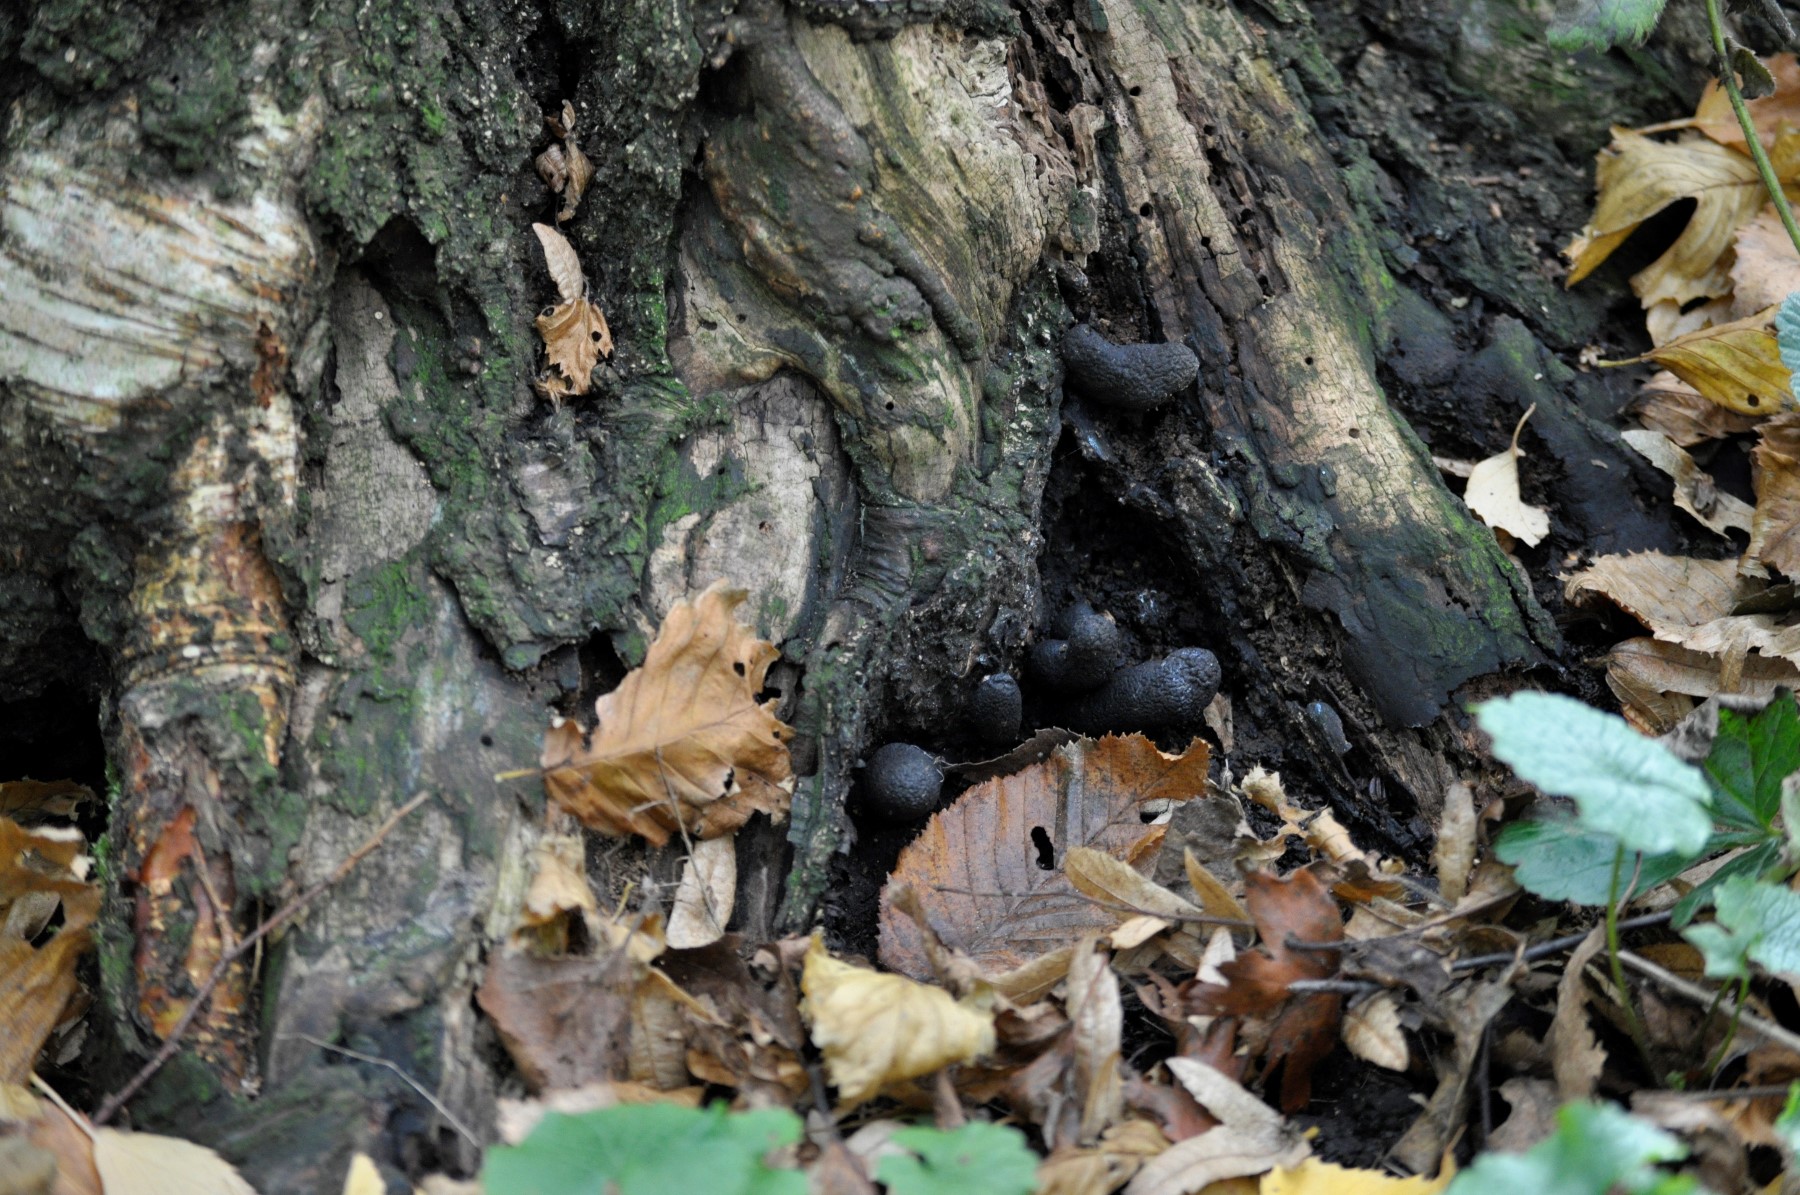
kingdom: Fungi
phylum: Ascomycota
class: Sordariomycetes
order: Xylariales
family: Xylariaceae
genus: Xylaria
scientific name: Xylaria polymorpha
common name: kølle-stødsvamp
